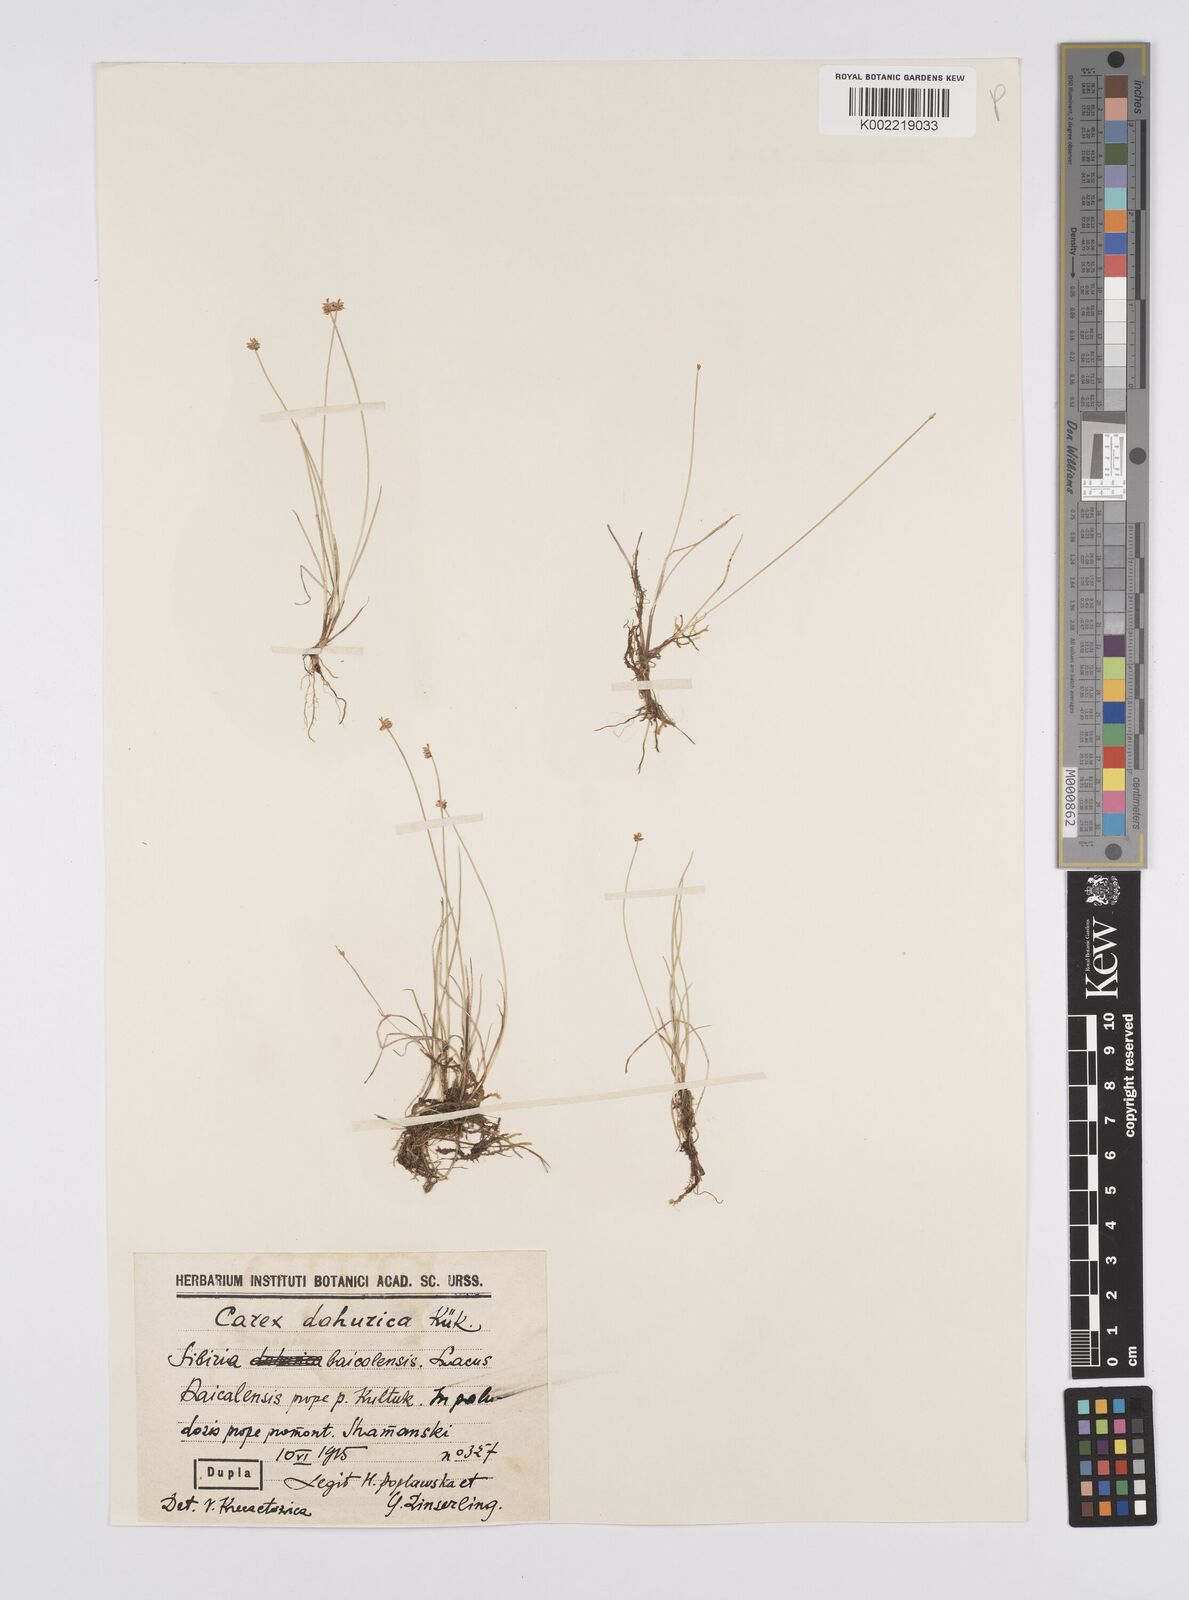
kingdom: Plantae
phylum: Tracheophyta
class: Liliopsida
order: Poales
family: Cyperaceae
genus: Carex
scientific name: Carex dahurica
